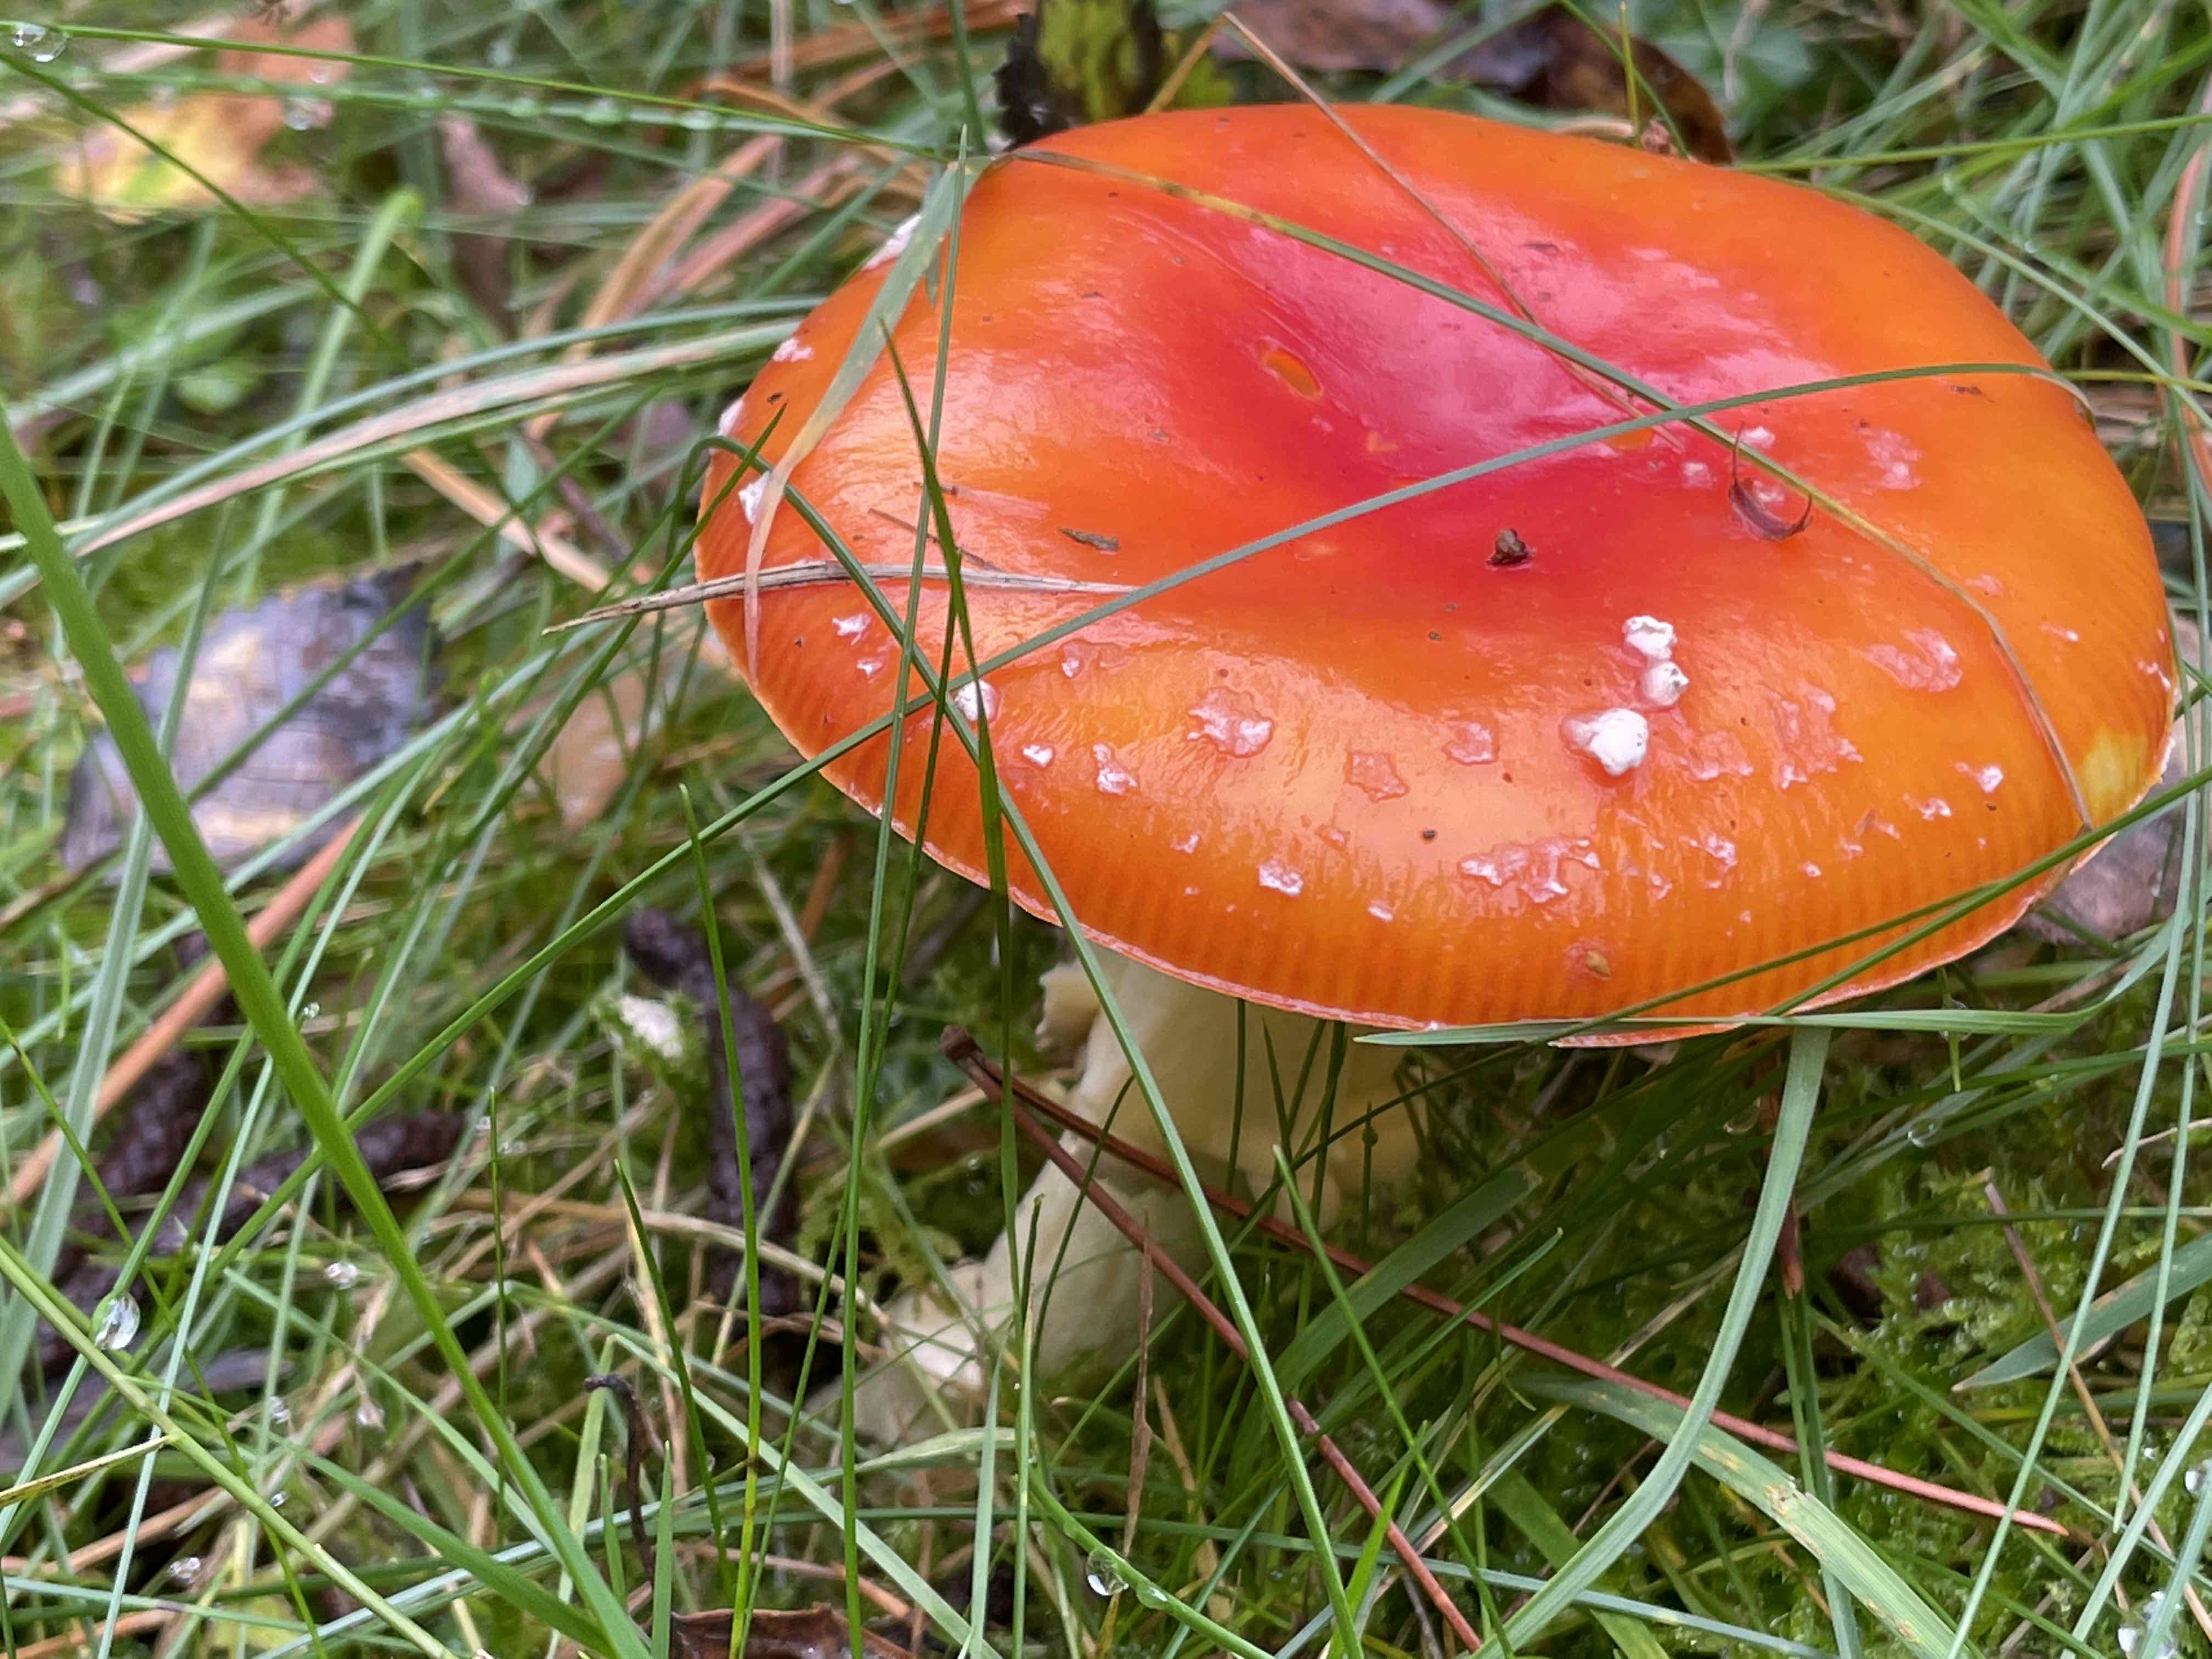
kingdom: Fungi
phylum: Basidiomycota
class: Agaricomycetes
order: Agaricales
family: Amanitaceae
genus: Amanita
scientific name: Amanita muscaria
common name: rød fluesvamp
